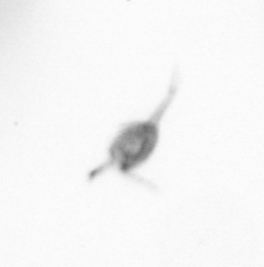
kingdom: Animalia
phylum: Arthropoda
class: Copepoda
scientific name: Copepoda
